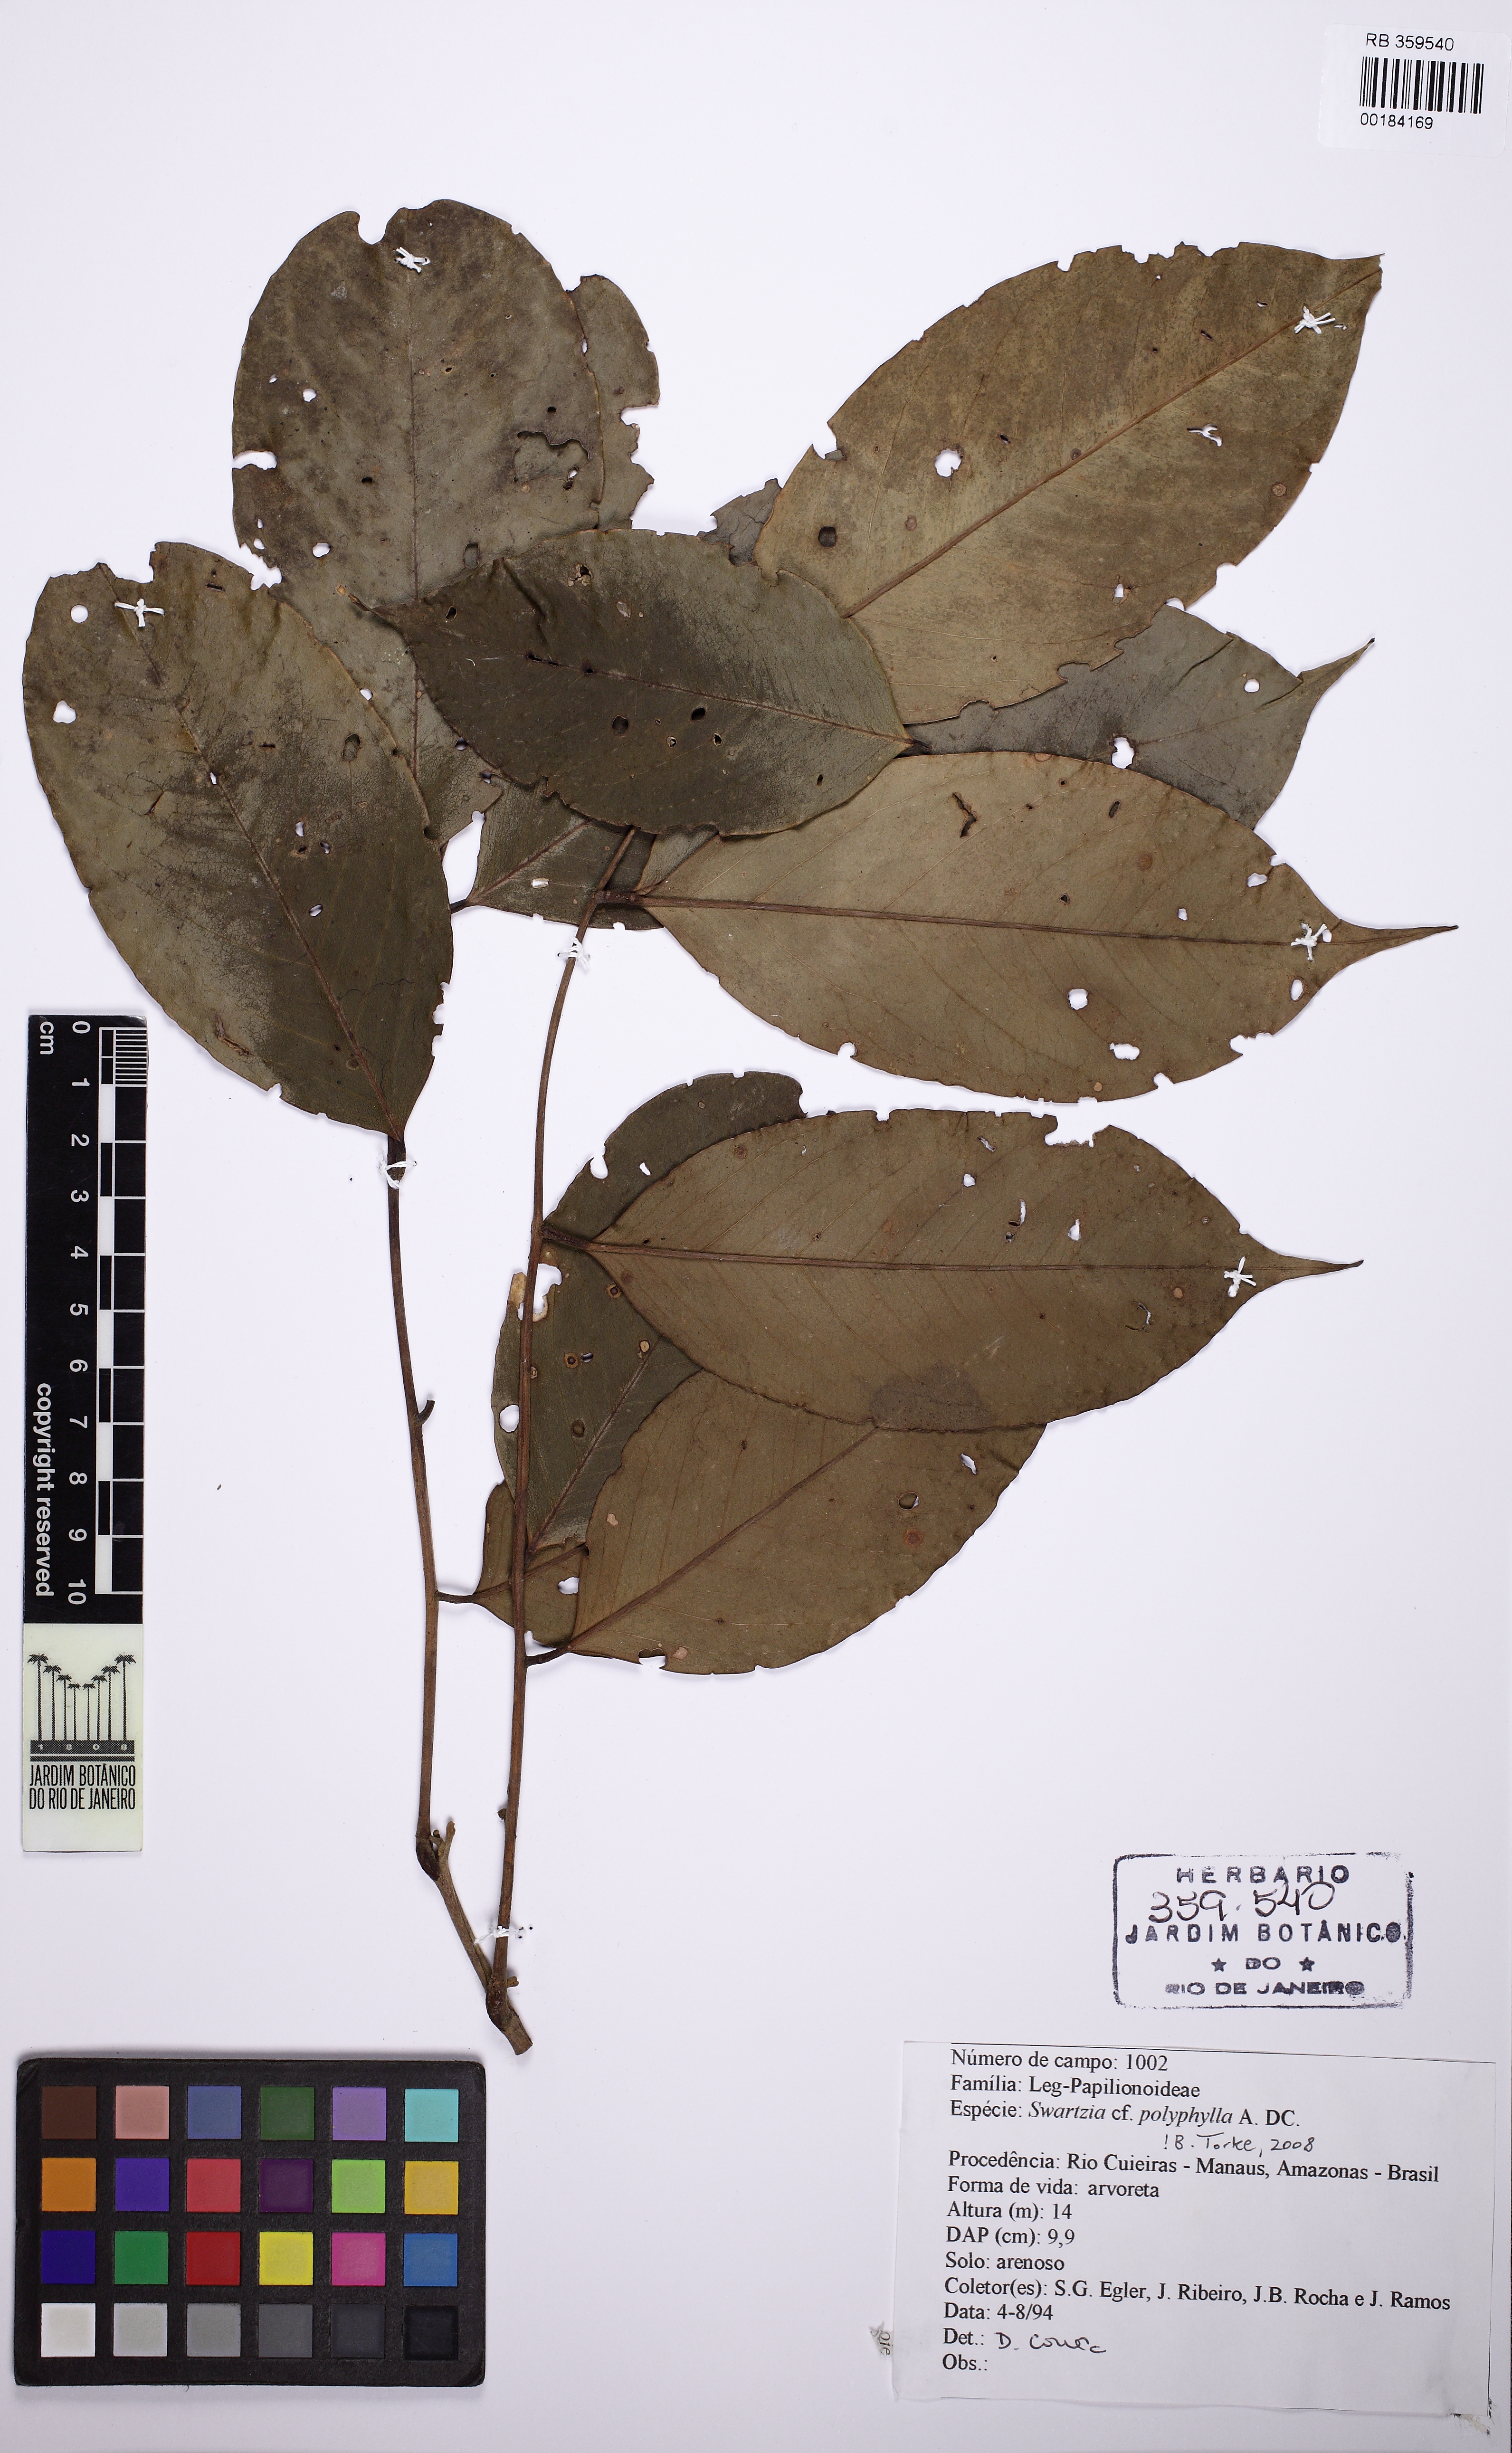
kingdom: Plantae
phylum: Tracheophyta
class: Magnoliopsida
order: Fabales
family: Fabaceae
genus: Swartzia
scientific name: Swartzia polyphylla
